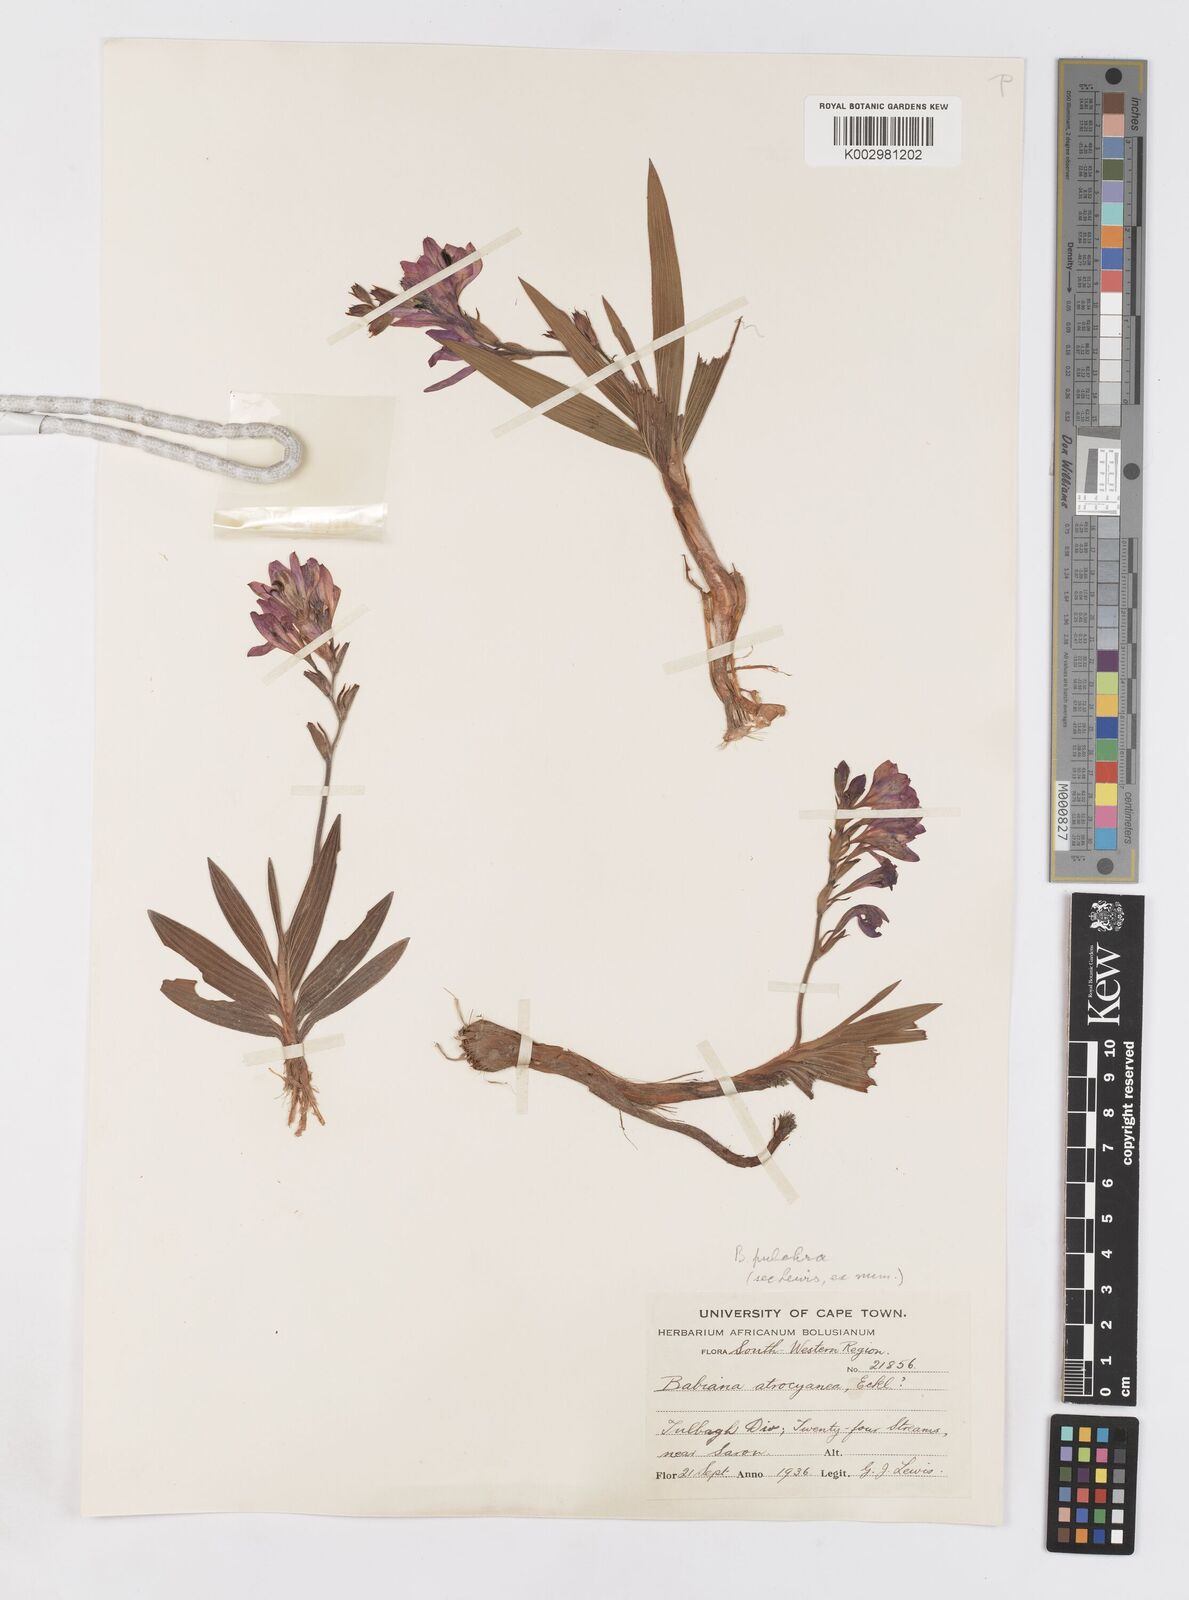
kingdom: Plantae
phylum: Tracheophyta
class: Liliopsida
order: Asparagales
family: Iridaceae
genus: Babiana
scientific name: Babiana angustifolia
